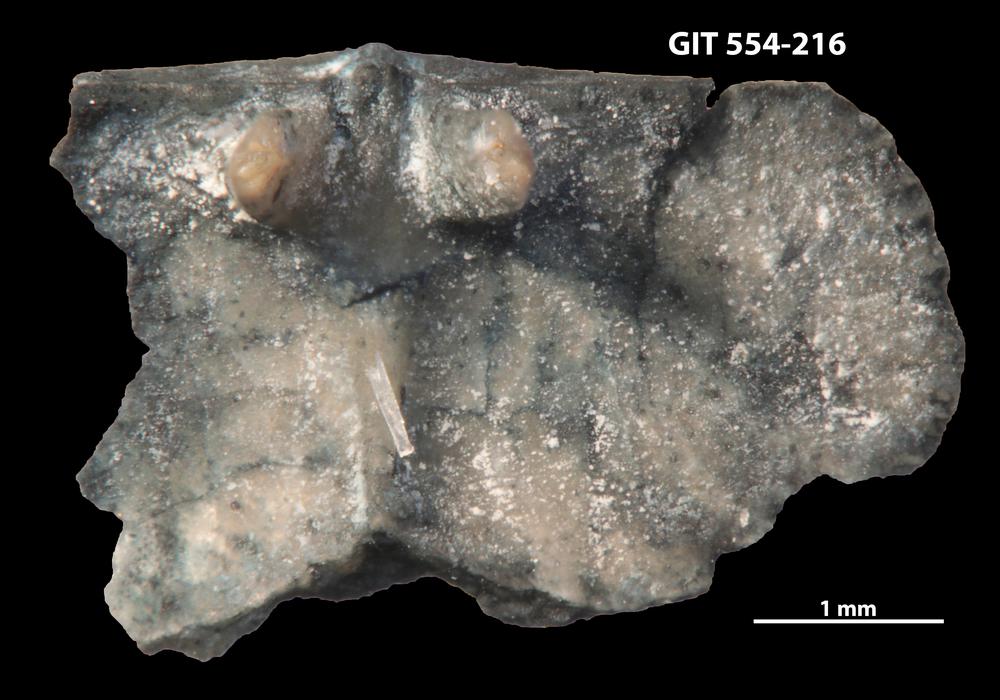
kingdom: Animalia
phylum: Brachiopoda
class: Rhynchonellata
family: Dalmanellidae
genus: Ravozetina
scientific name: Ravozetina
